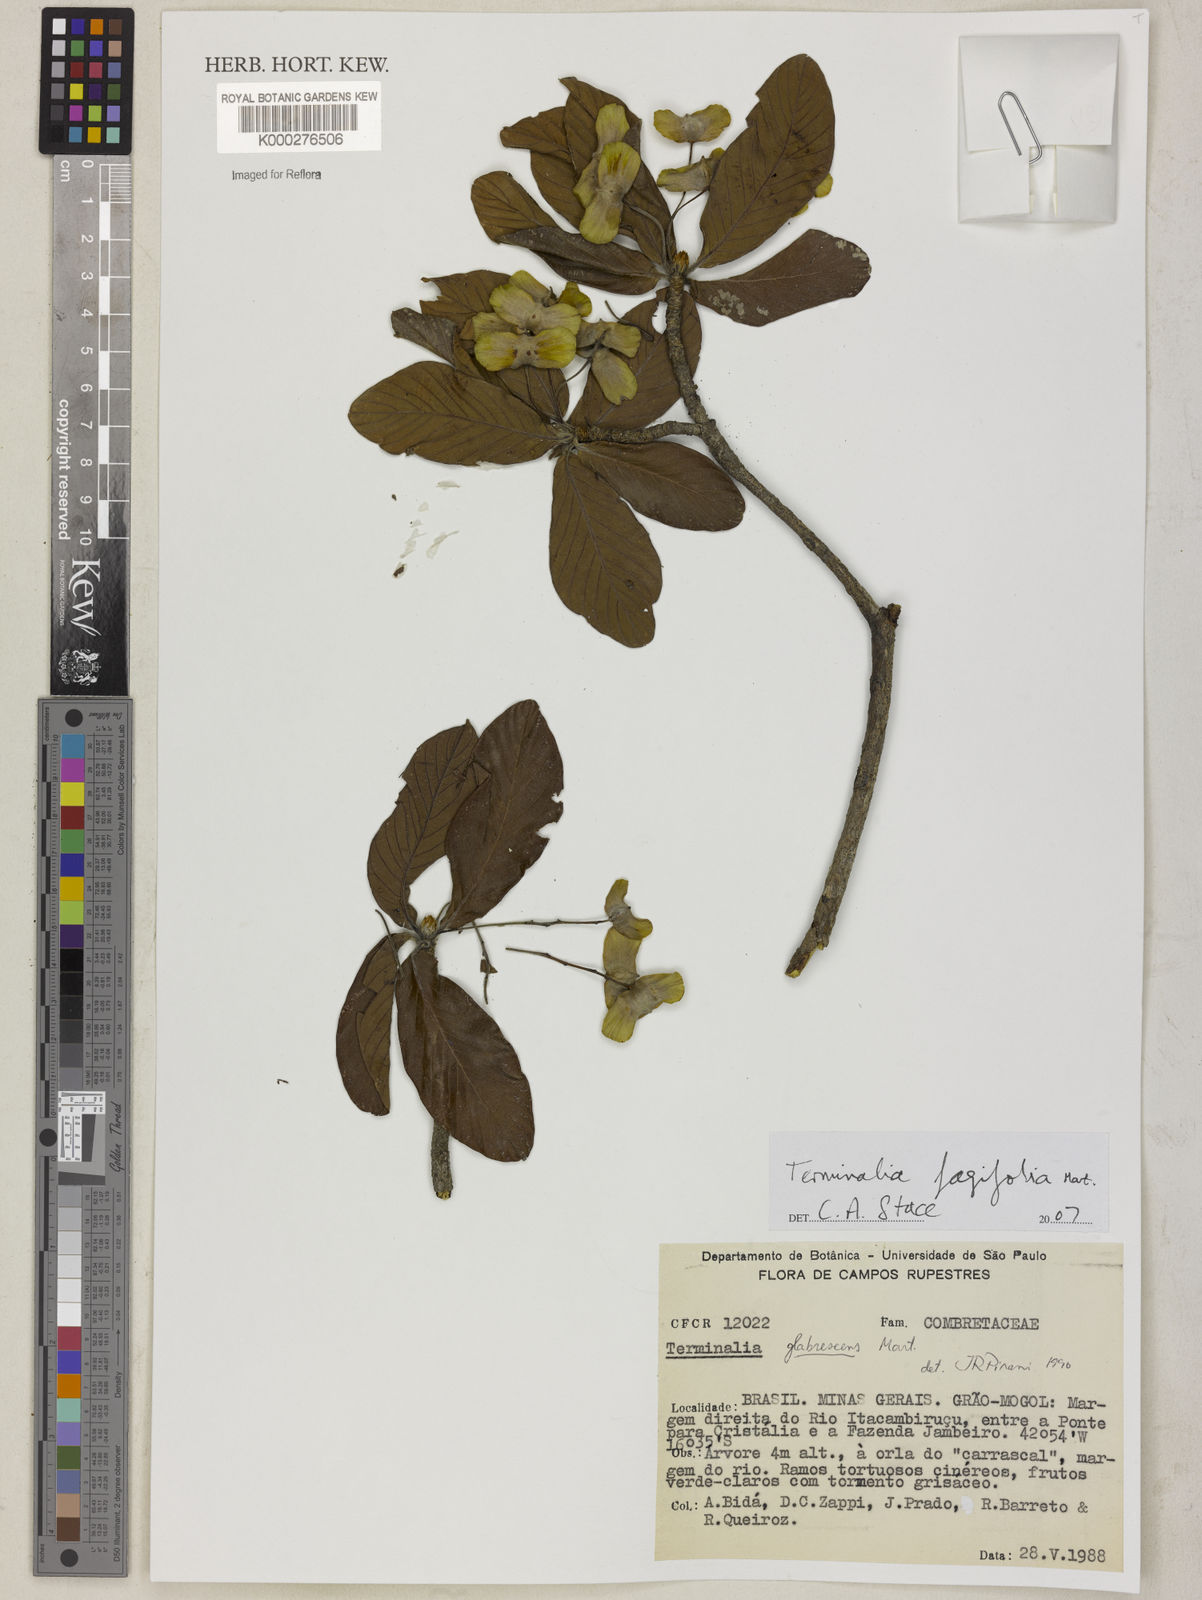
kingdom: Plantae
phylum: Tracheophyta
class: Magnoliopsida
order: Myrtales
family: Combretaceae
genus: Terminalia
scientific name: Terminalia fagifolia
